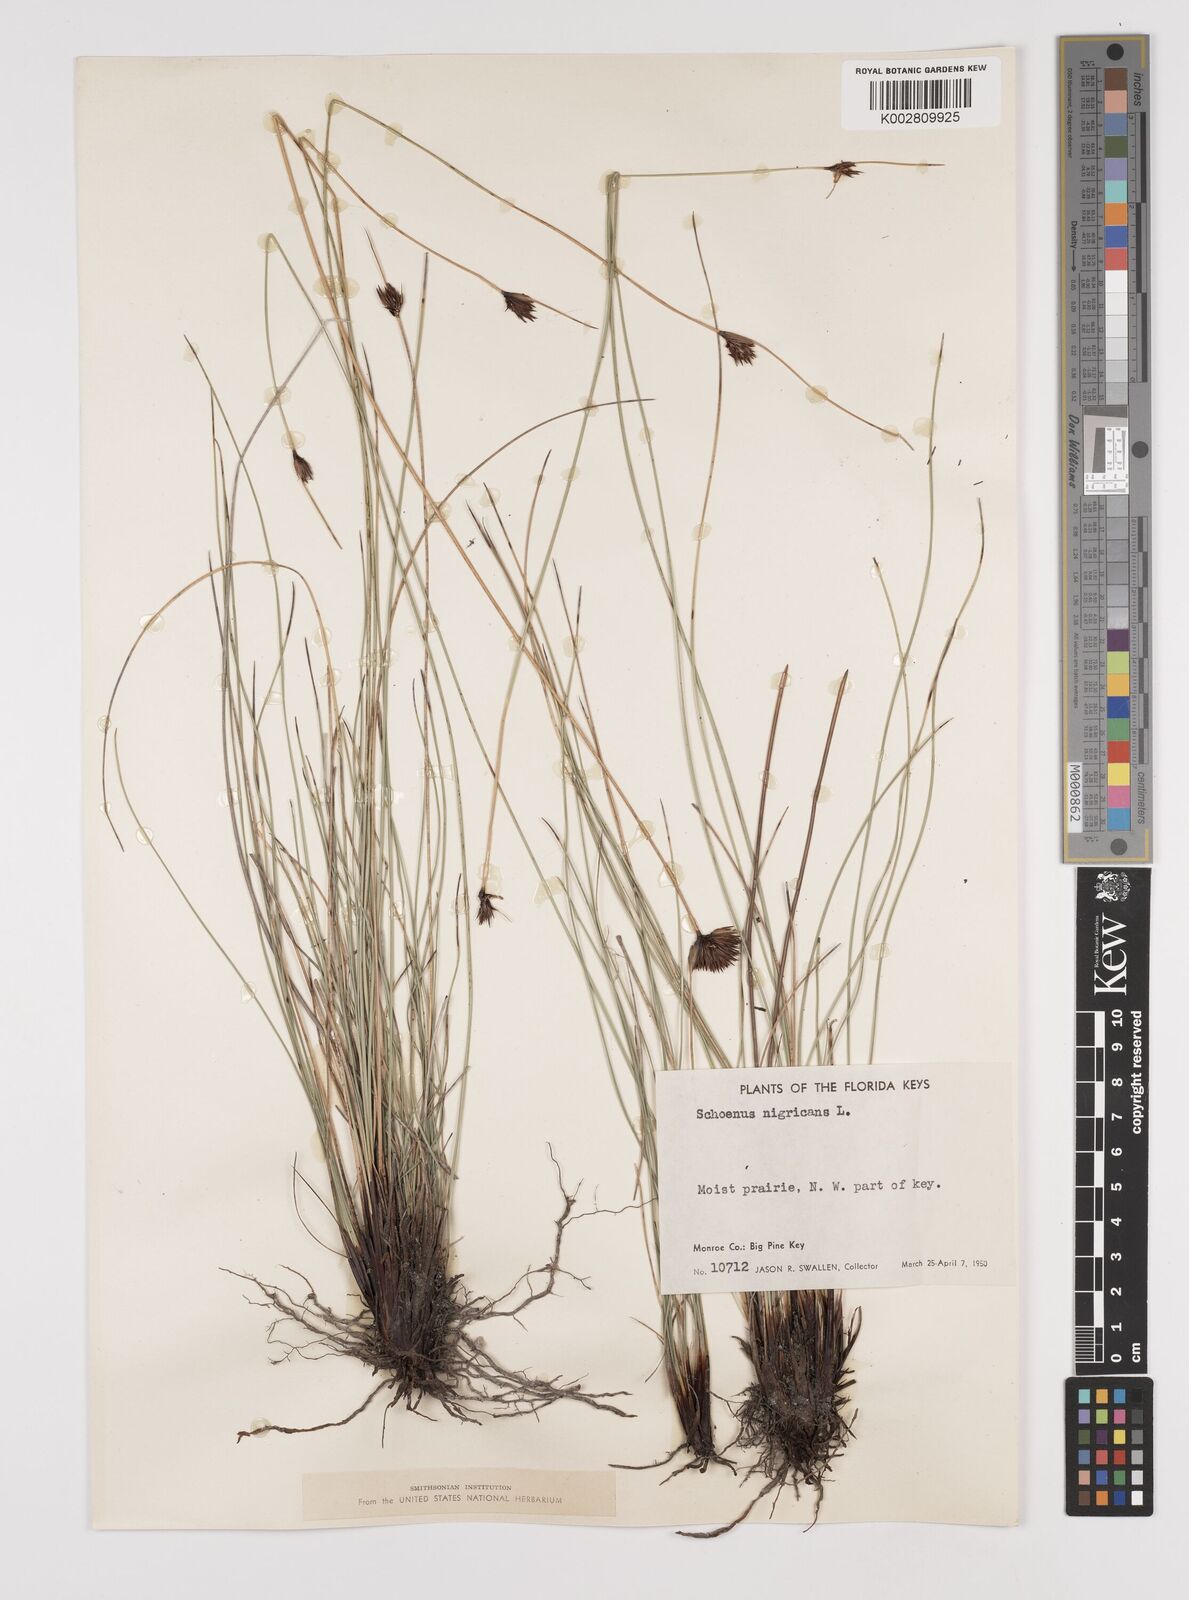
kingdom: Plantae
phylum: Tracheophyta
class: Liliopsida
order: Poales
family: Cyperaceae
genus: Schoenus
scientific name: Schoenus nigricans
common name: Black bog-rush
